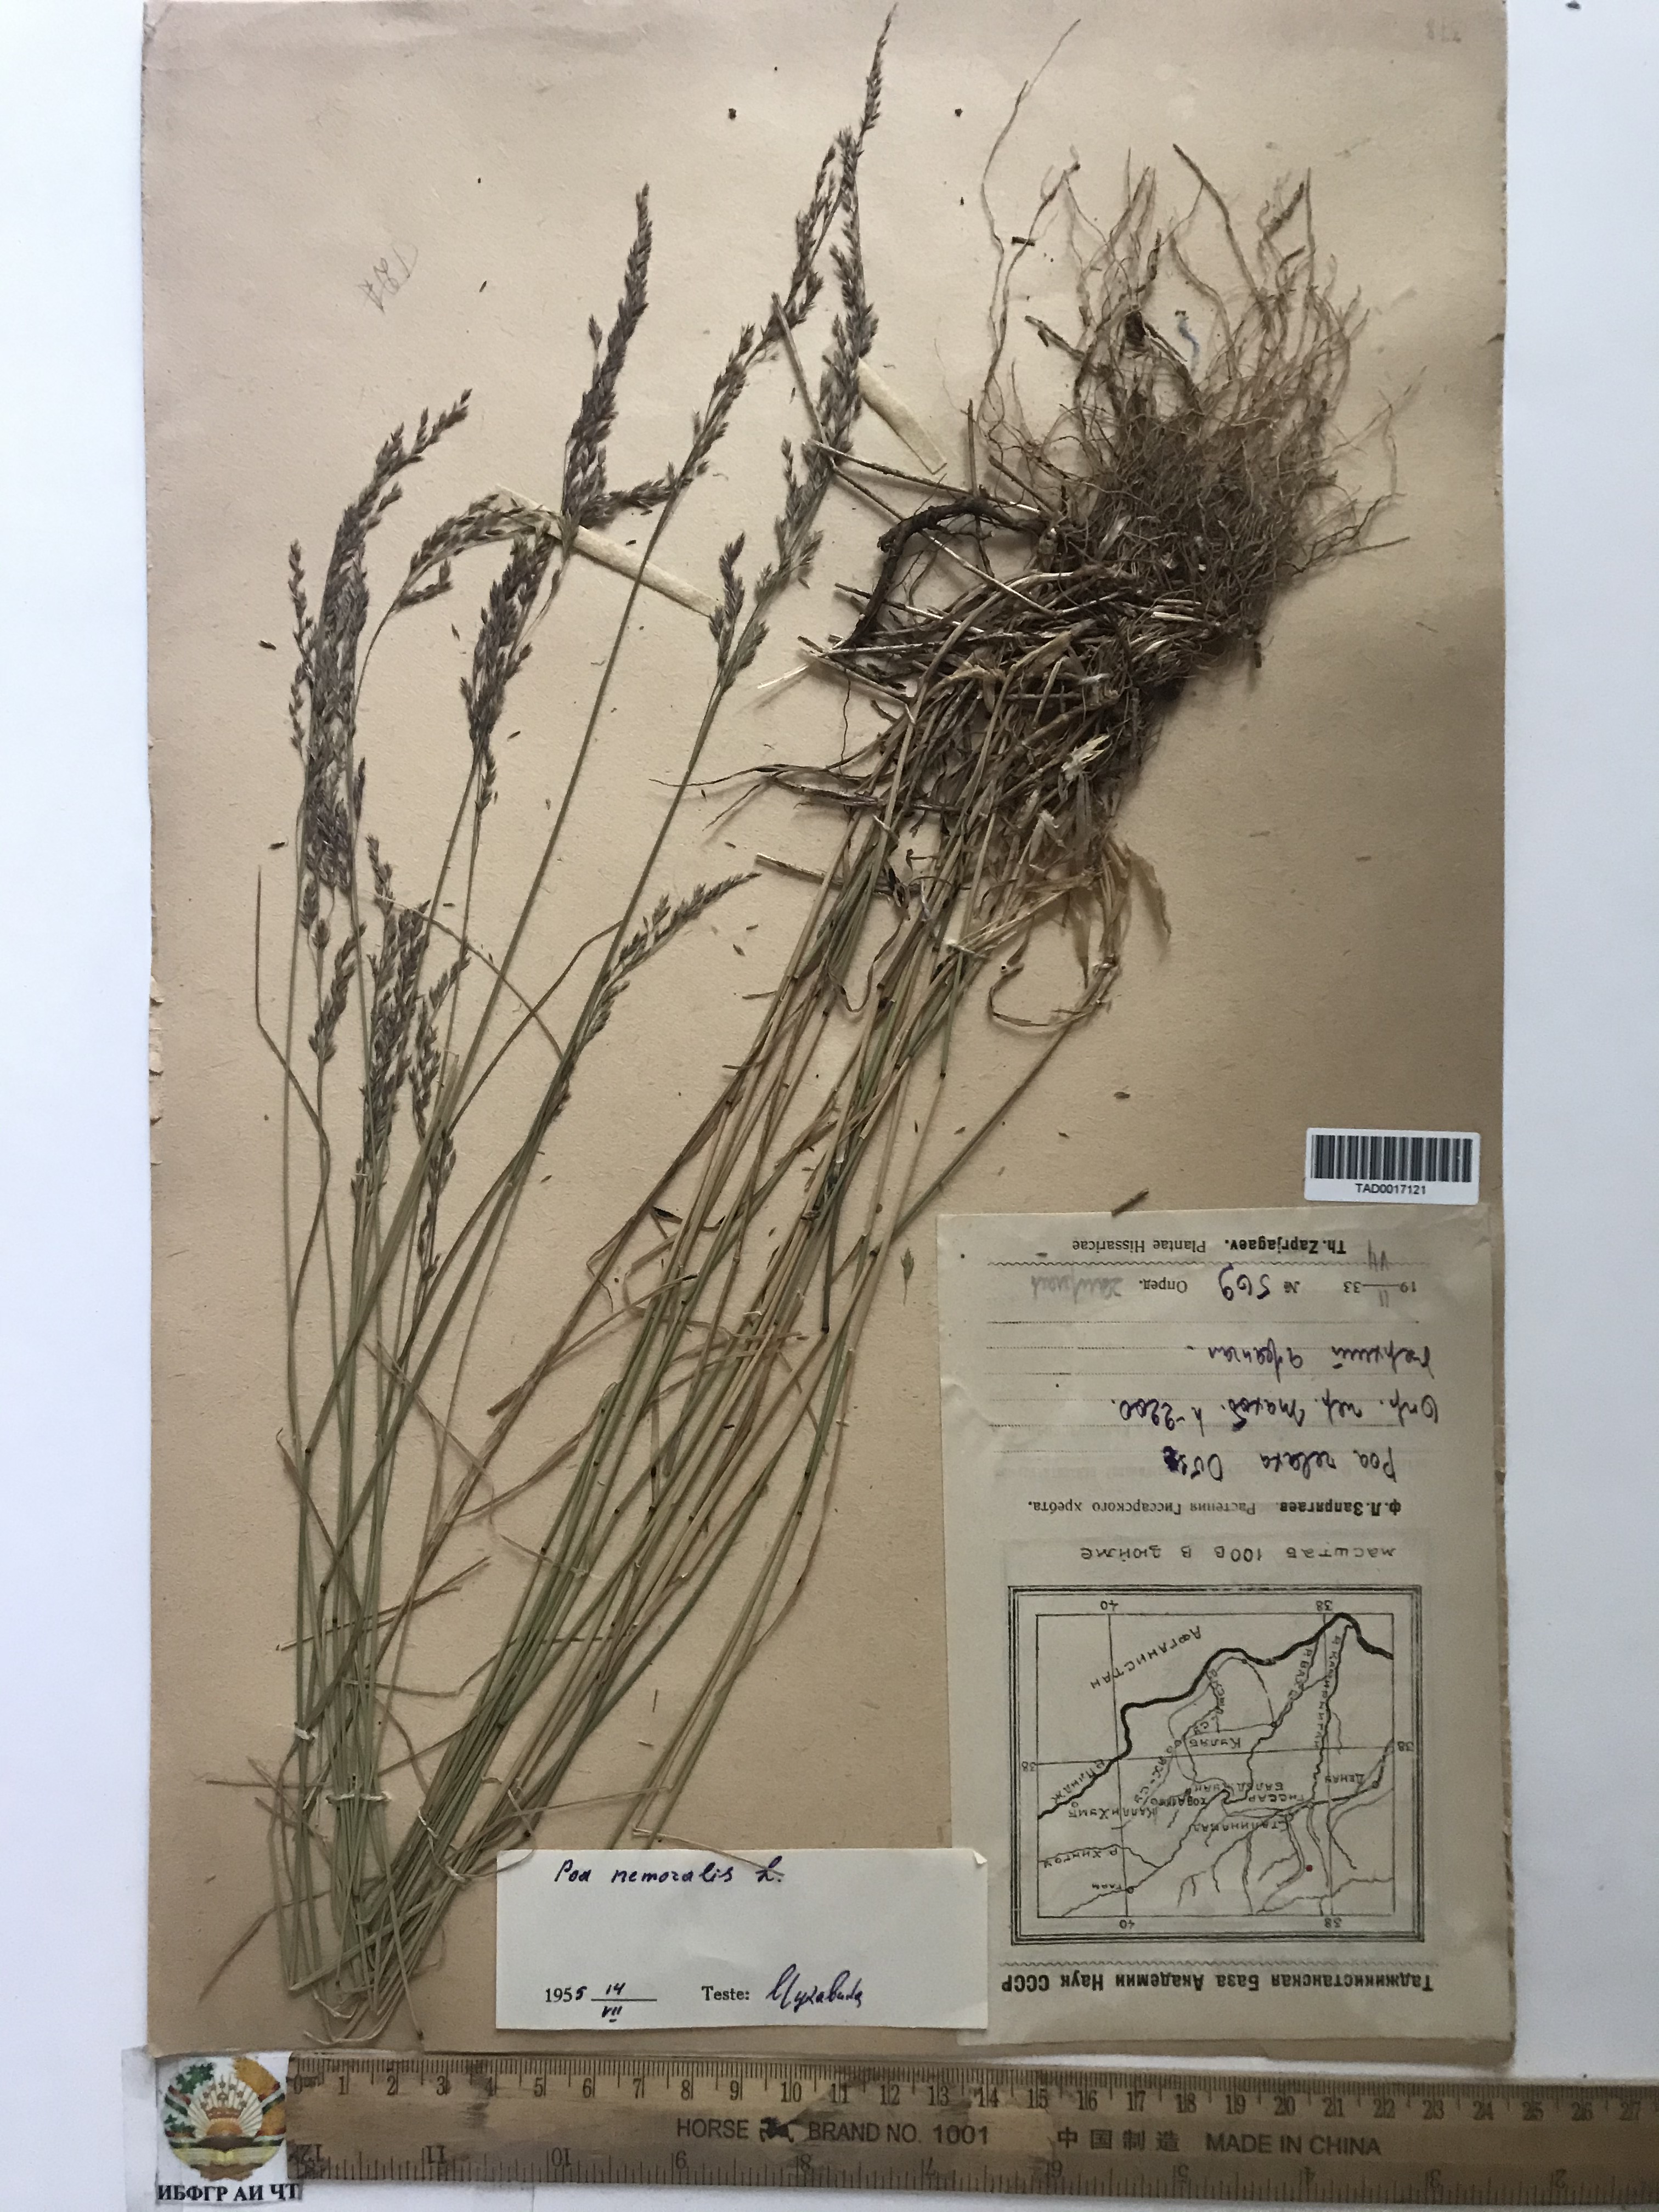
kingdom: Plantae
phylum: Tracheophyta
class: Liliopsida
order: Poales
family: Poaceae
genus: Poa
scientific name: Poa nemoralis
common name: Wood bluegrass
